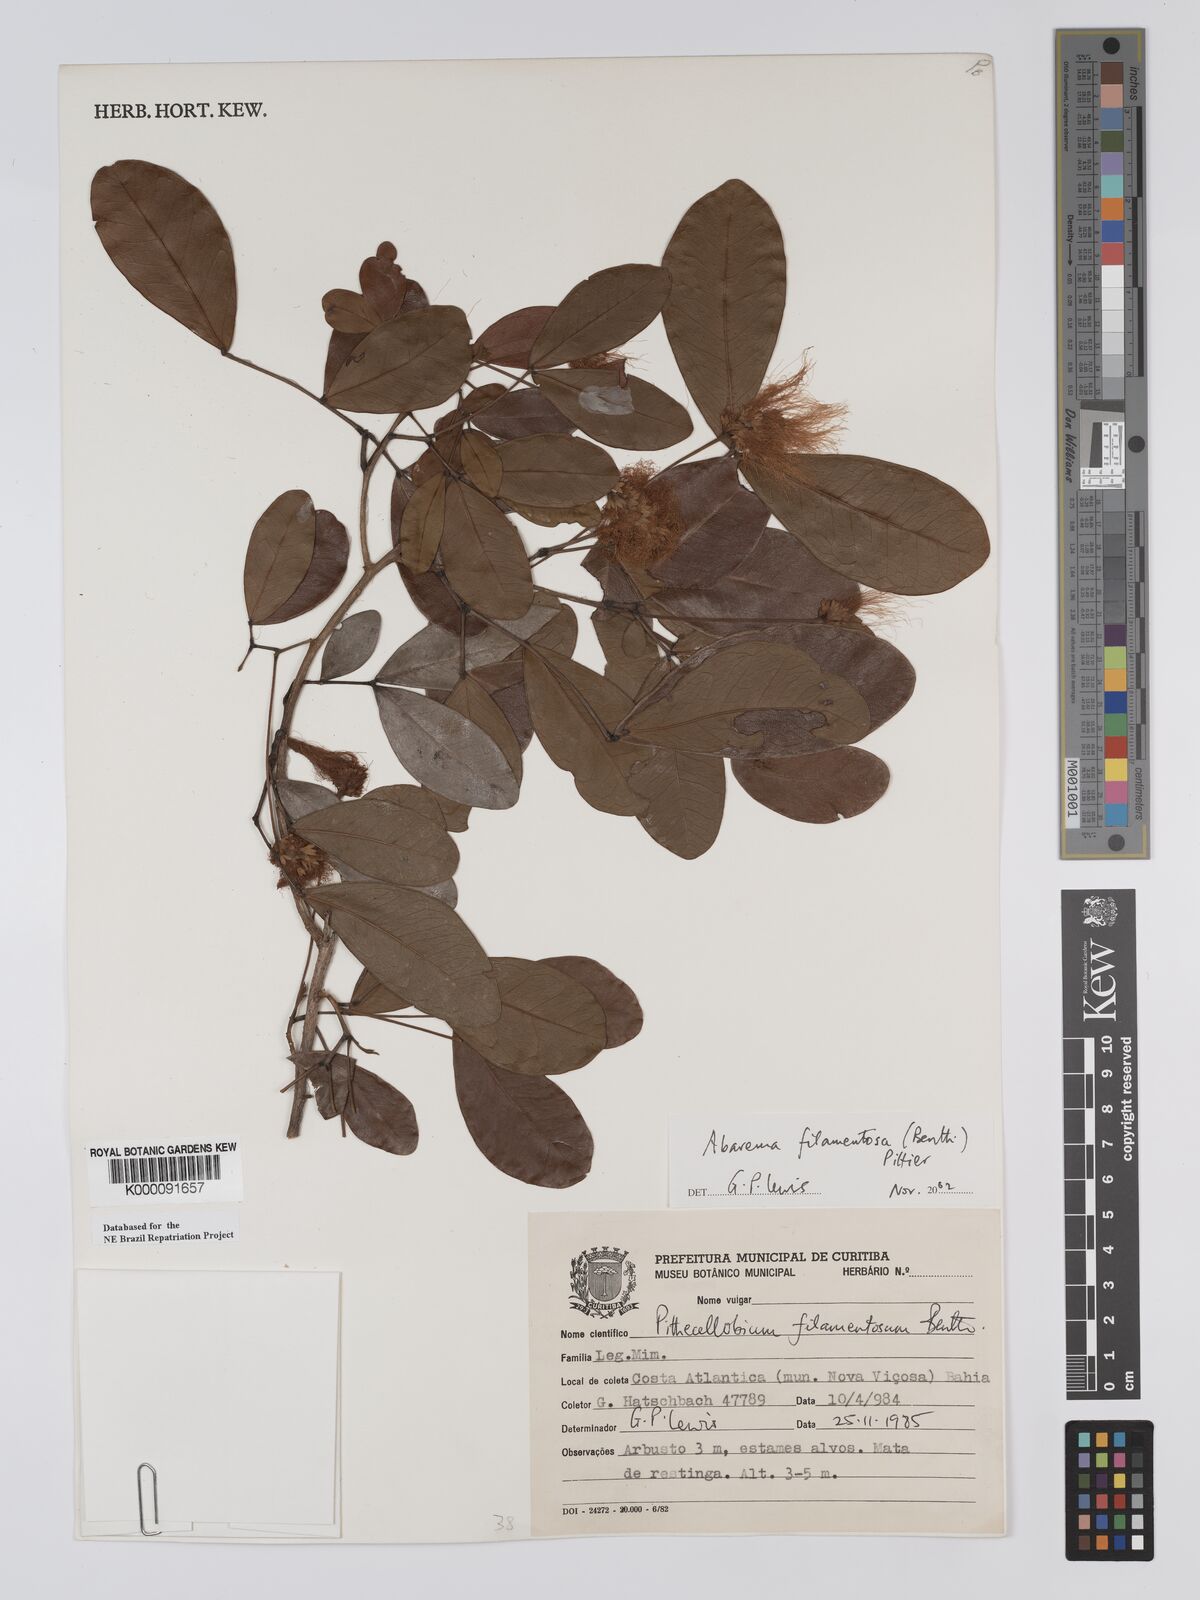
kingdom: Plantae
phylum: Tracheophyta
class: Magnoliopsida
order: Fabales
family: Fabaceae
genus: Jupunba
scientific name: Jupunba filamentosa
